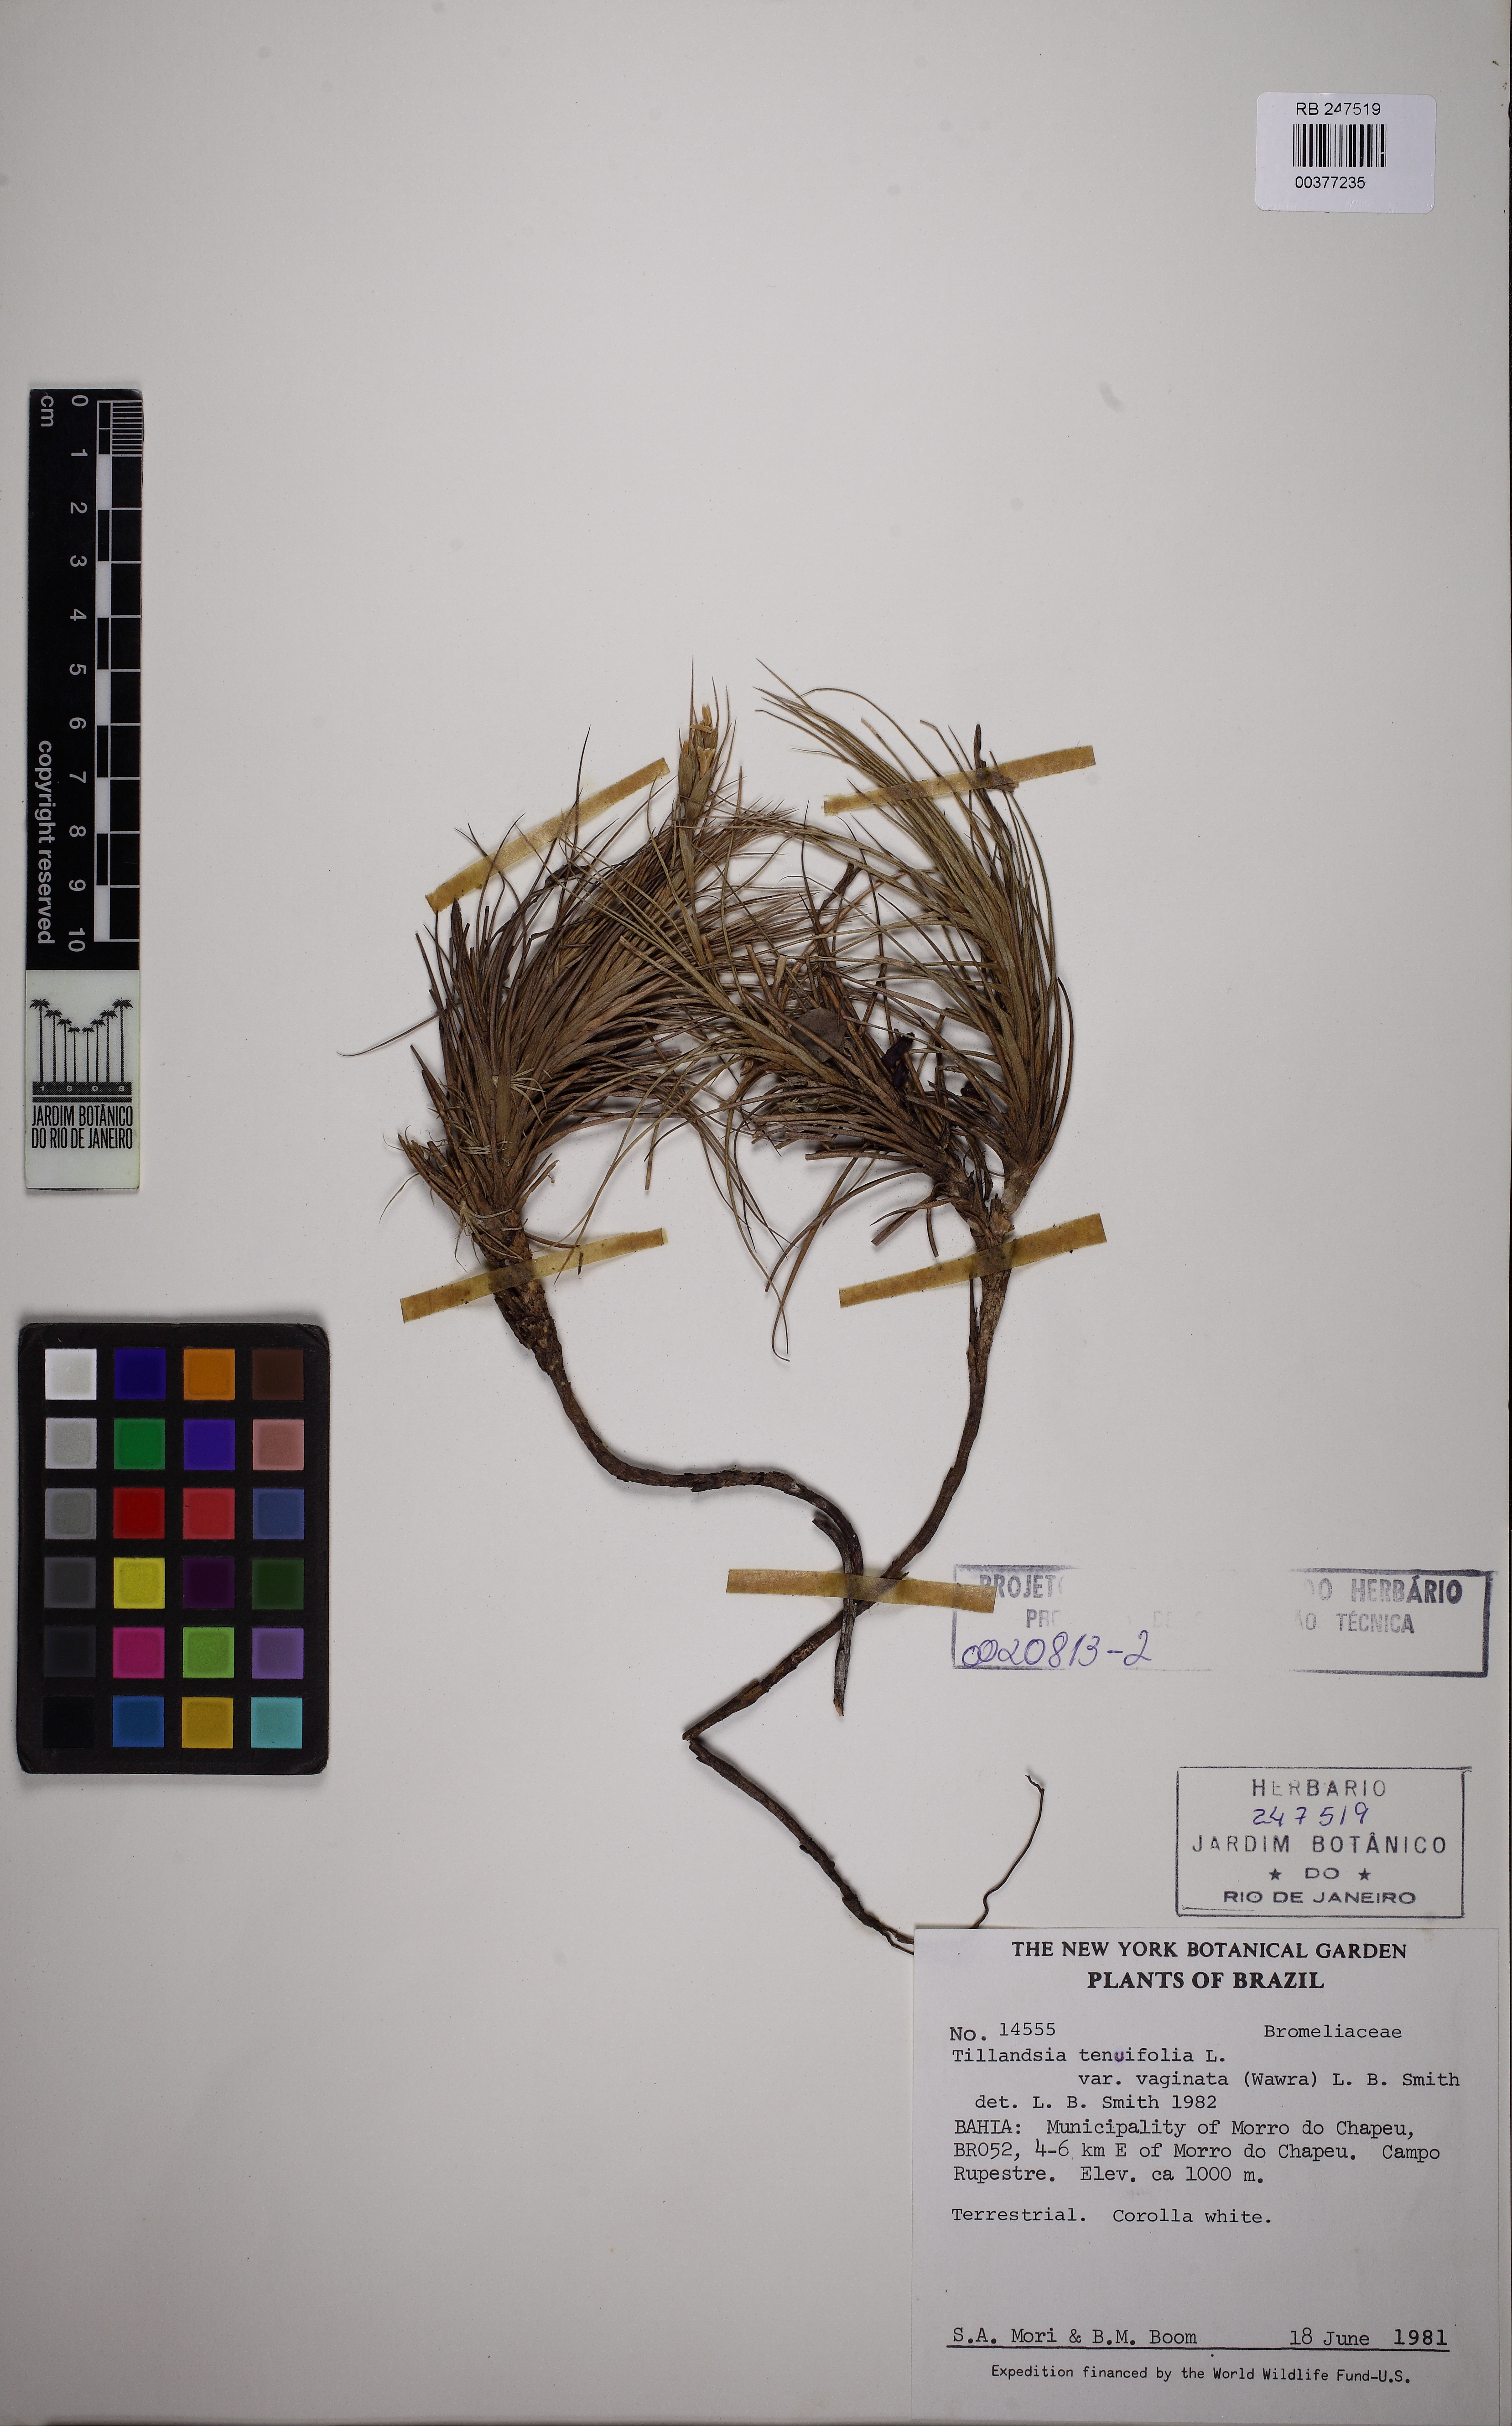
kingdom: Plantae
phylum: Tracheophyta
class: Liliopsida
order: Poales
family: Bromeliaceae
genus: Tillandsia
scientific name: Tillandsia tenuifolia
